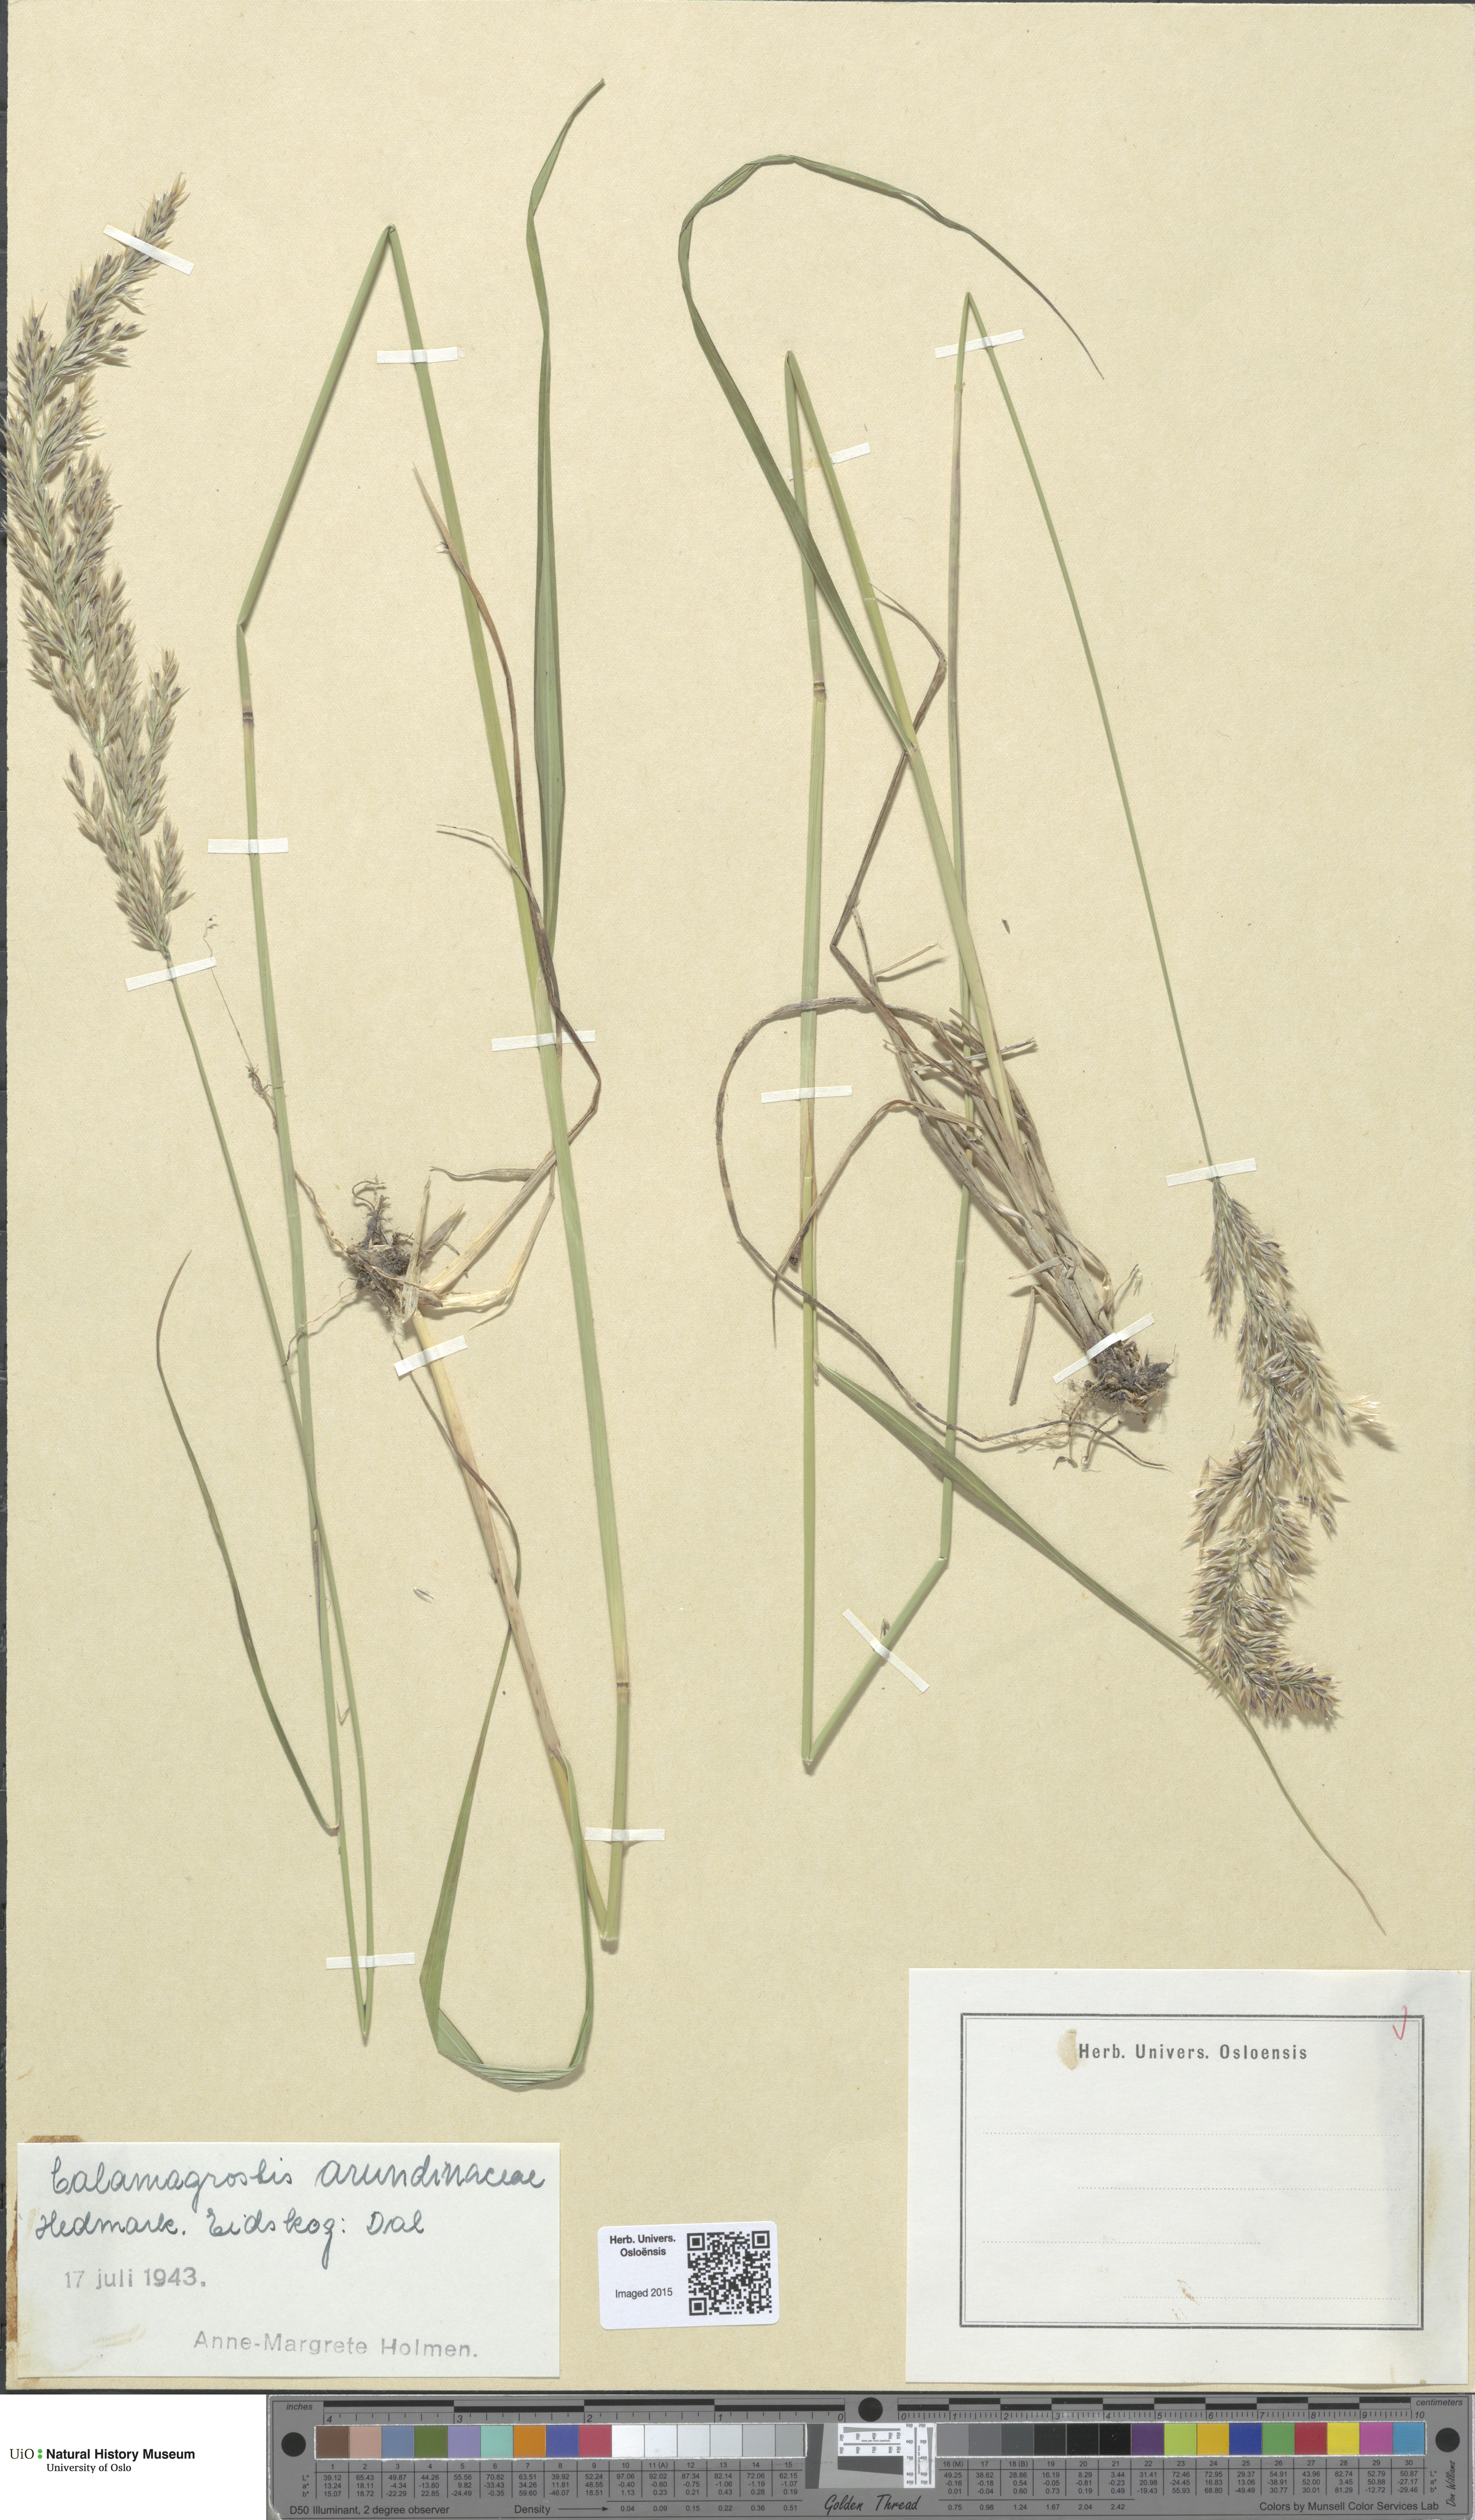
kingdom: Plantae
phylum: Tracheophyta
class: Liliopsida
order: Poales
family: Poaceae
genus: Calamagrostis
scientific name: Calamagrostis arundinacea
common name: Metskastik
